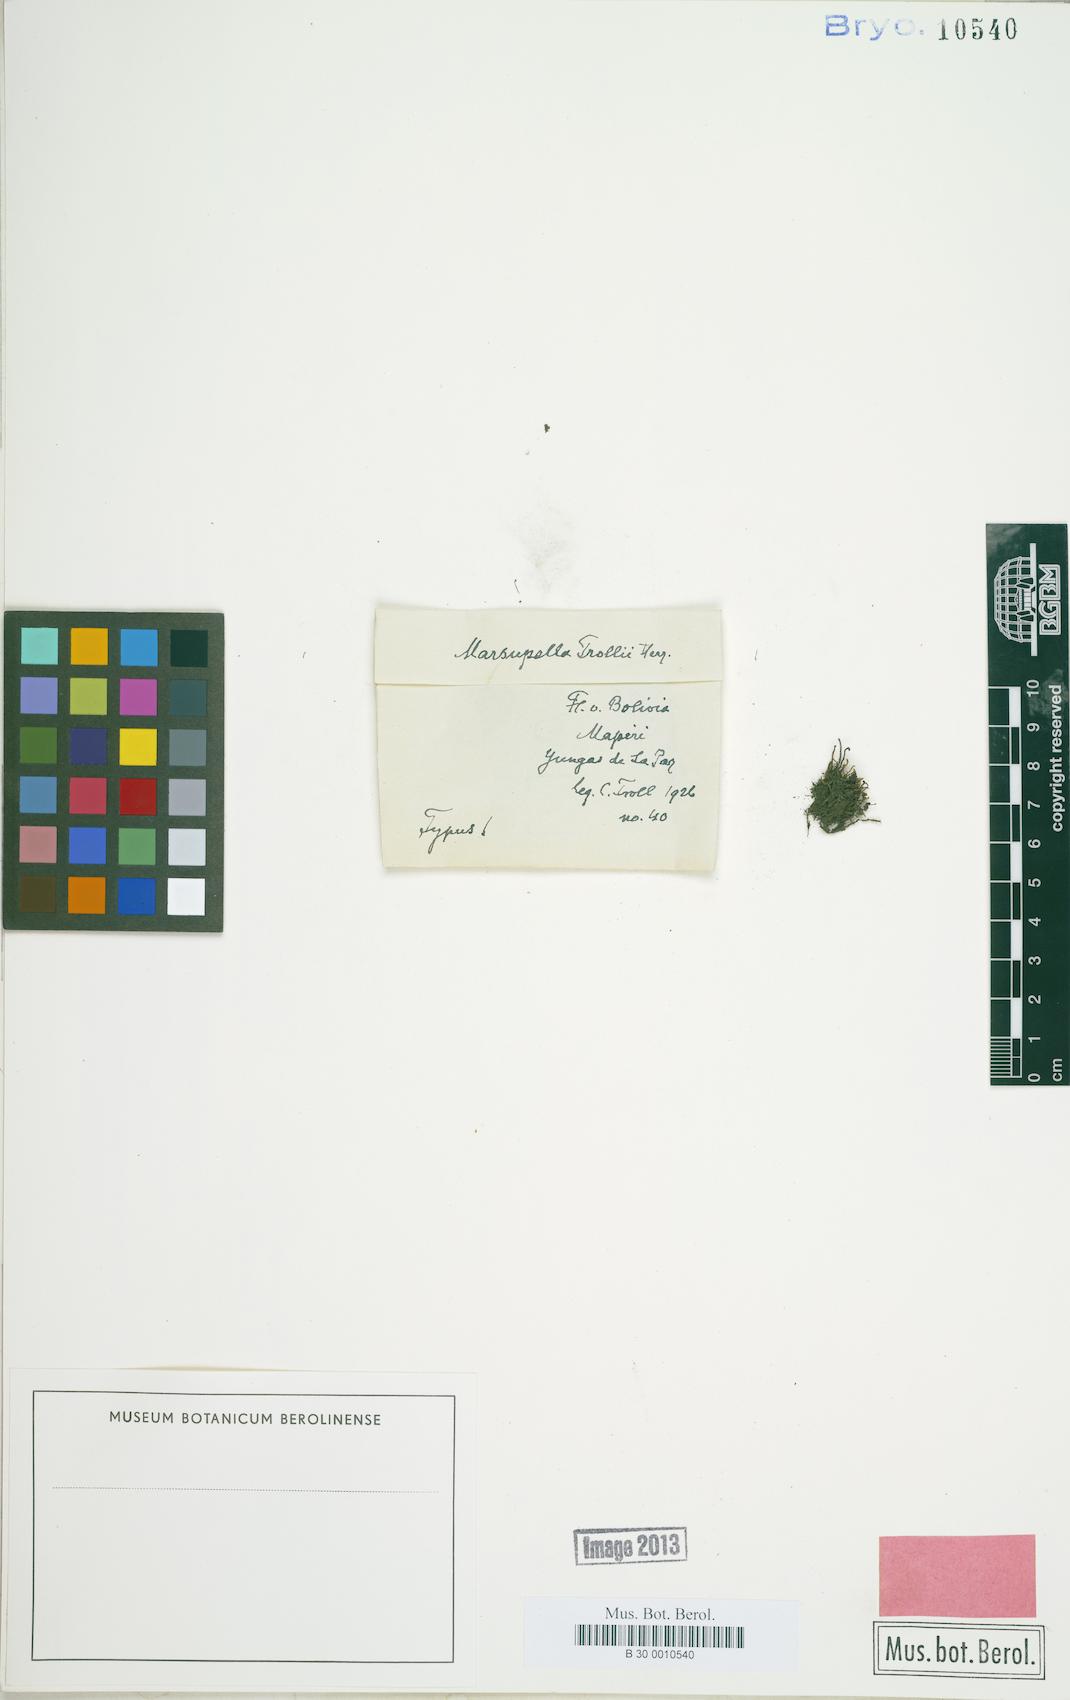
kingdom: Plantae
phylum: Marchantiophyta
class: Jungermanniopsida
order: Jungermanniales
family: Gymnomitriaceae
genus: Gymnomitrion
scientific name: Gymnomitrion bolivianum
